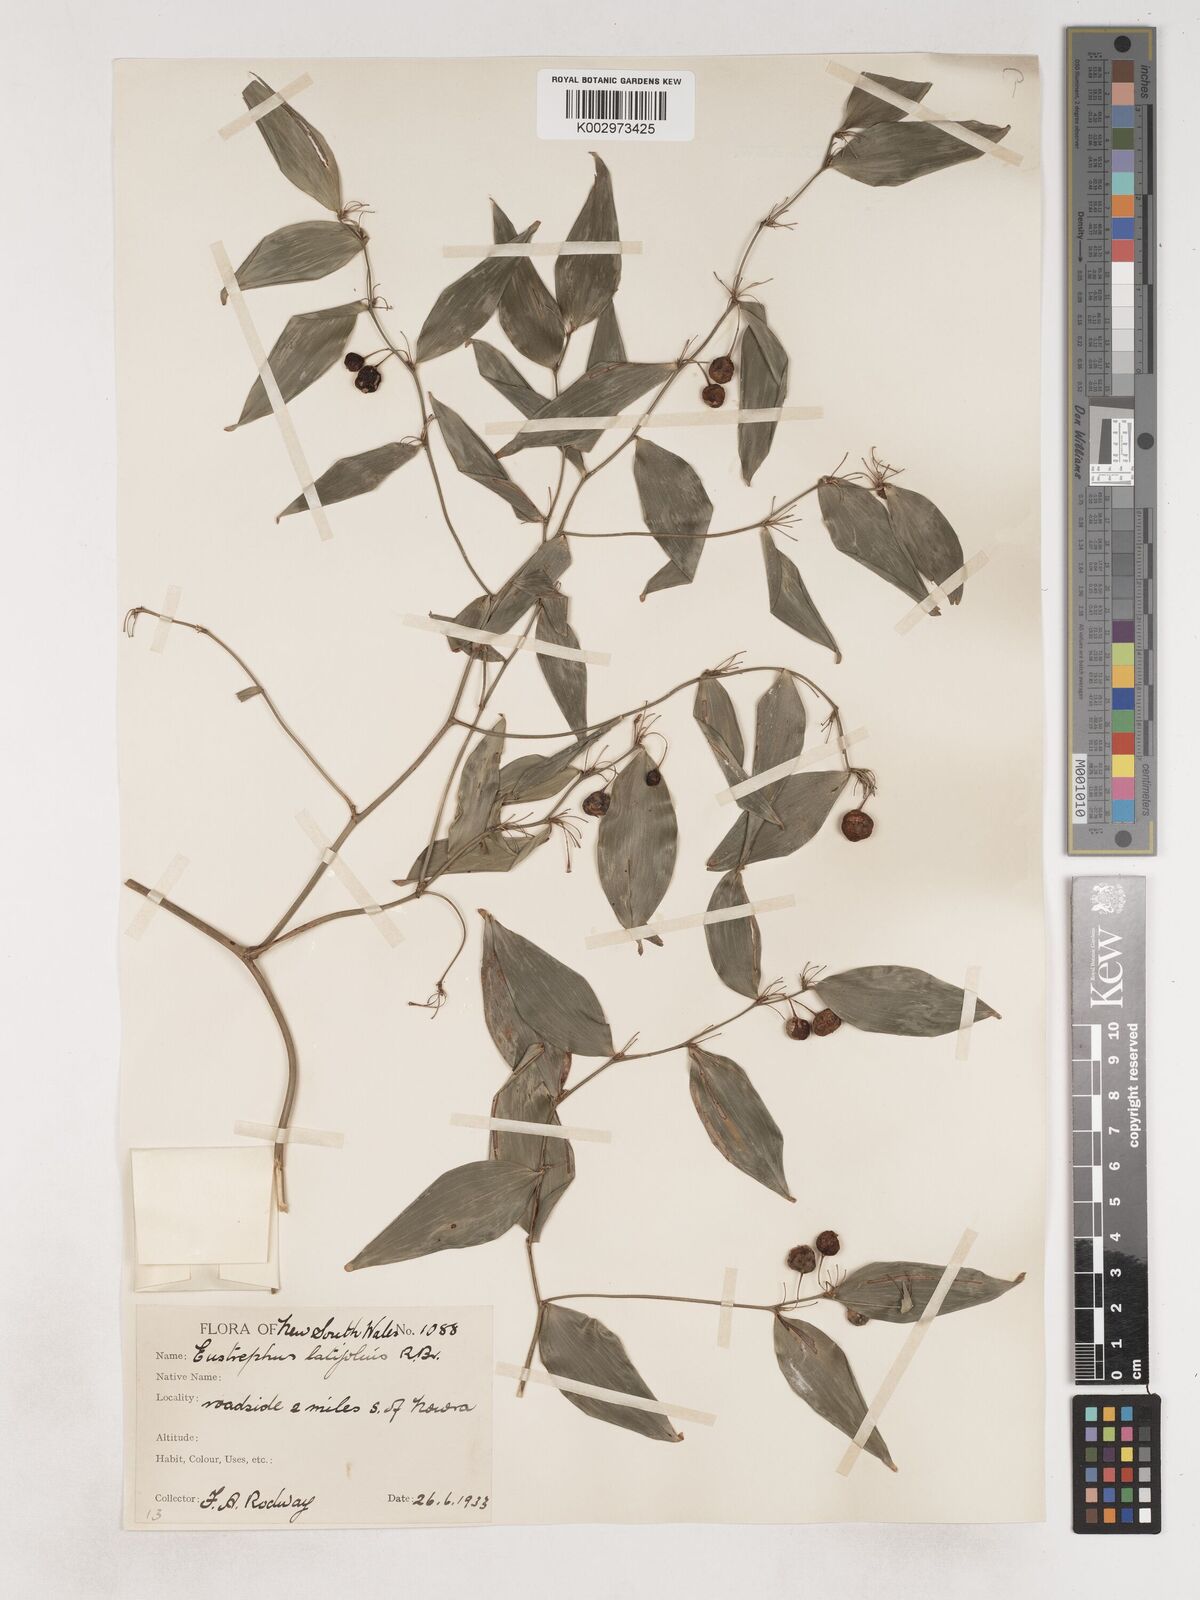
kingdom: Plantae
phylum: Tracheophyta
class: Liliopsida
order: Asparagales
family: Asparagaceae
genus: Eustrephus
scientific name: Eustrephus latifolius
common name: Orangevine
